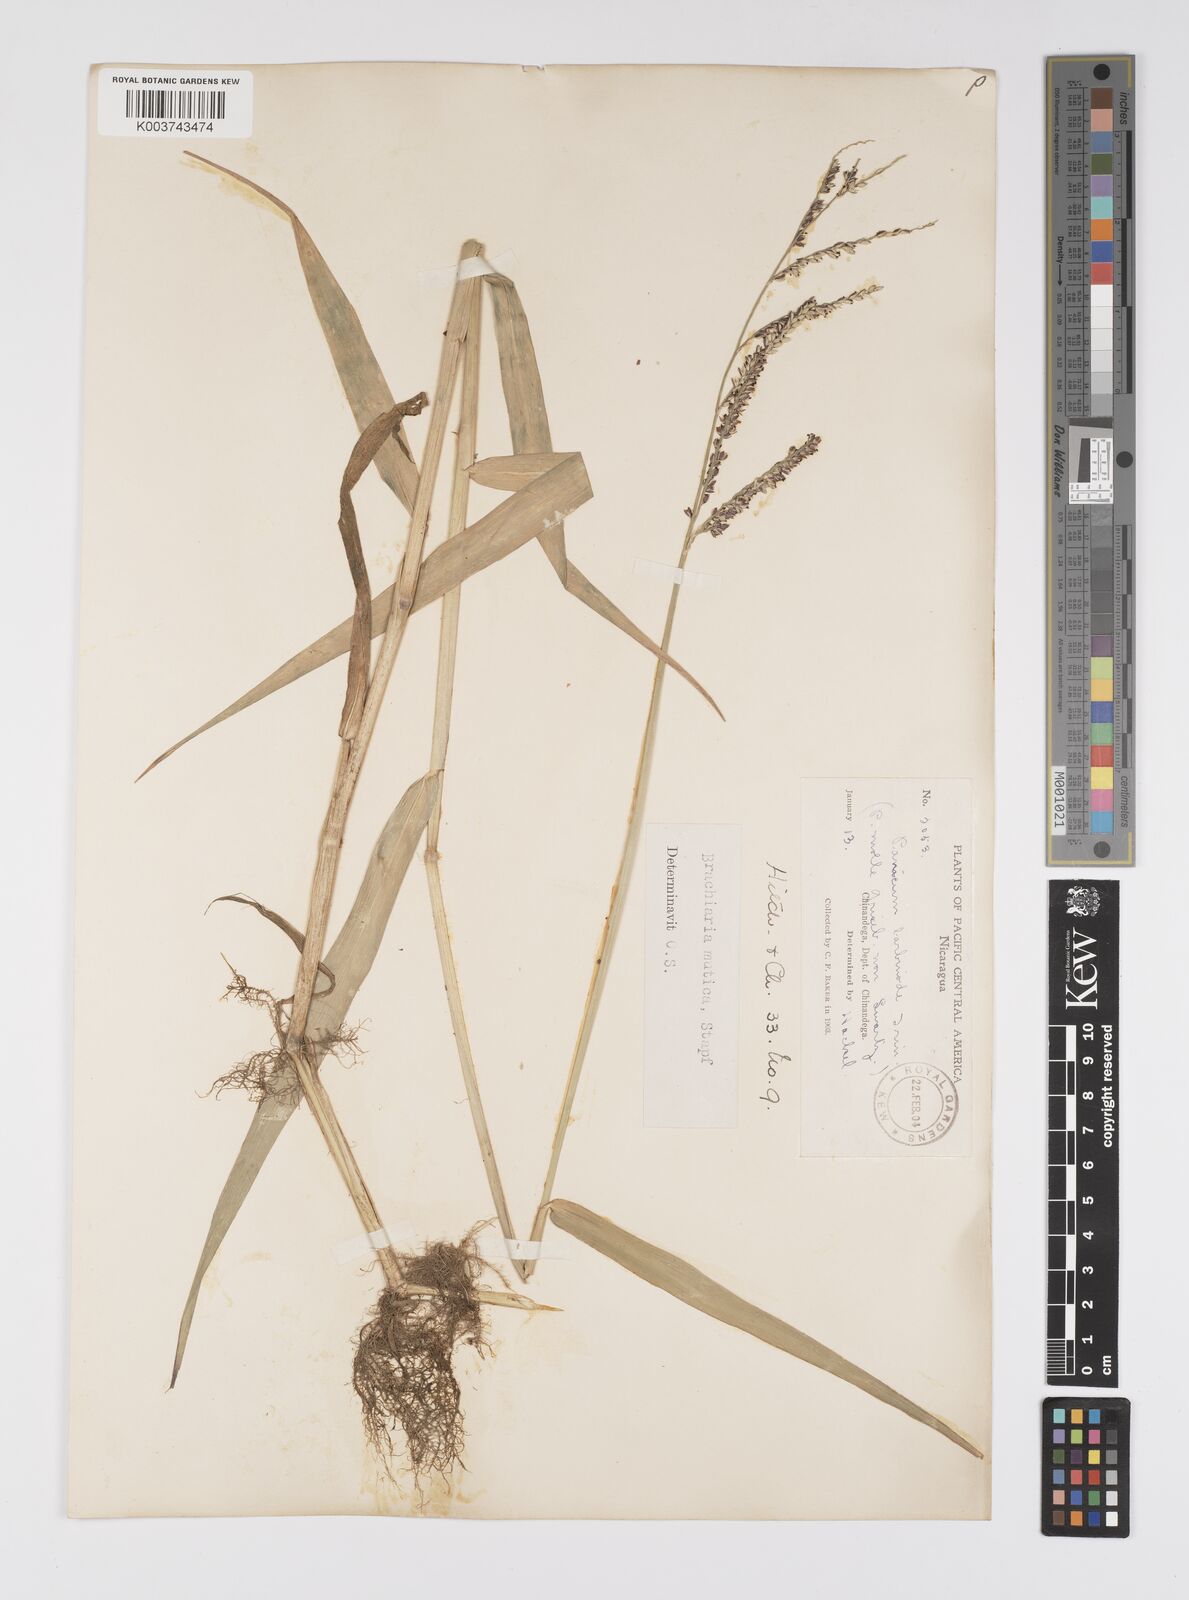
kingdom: Plantae
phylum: Tracheophyta
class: Liliopsida
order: Poales
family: Poaceae
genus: Urochloa
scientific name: Urochloa mutica
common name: Para grass
